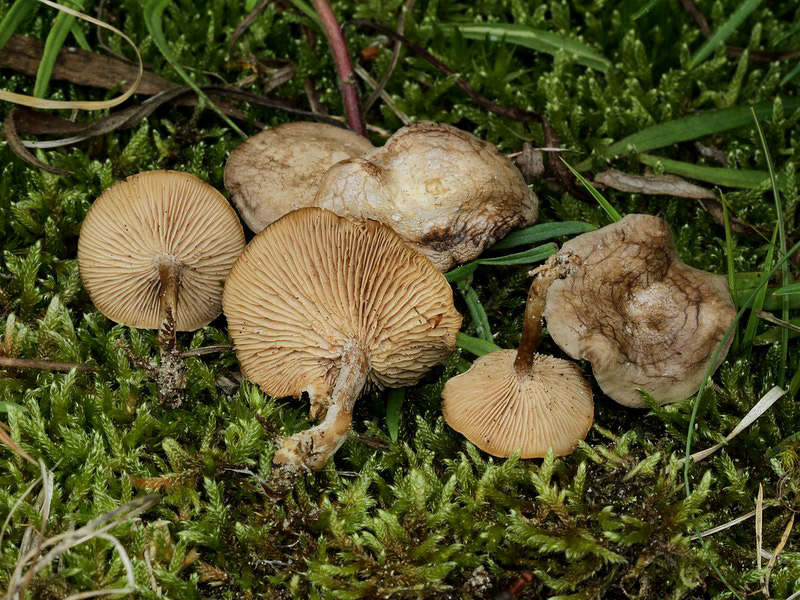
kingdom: Fungi
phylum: Basidiomycota
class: Agaricomycetes
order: Agaricales
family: Tricholomataceae
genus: Lulesia
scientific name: Lulesia
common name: sortnende troldhat
